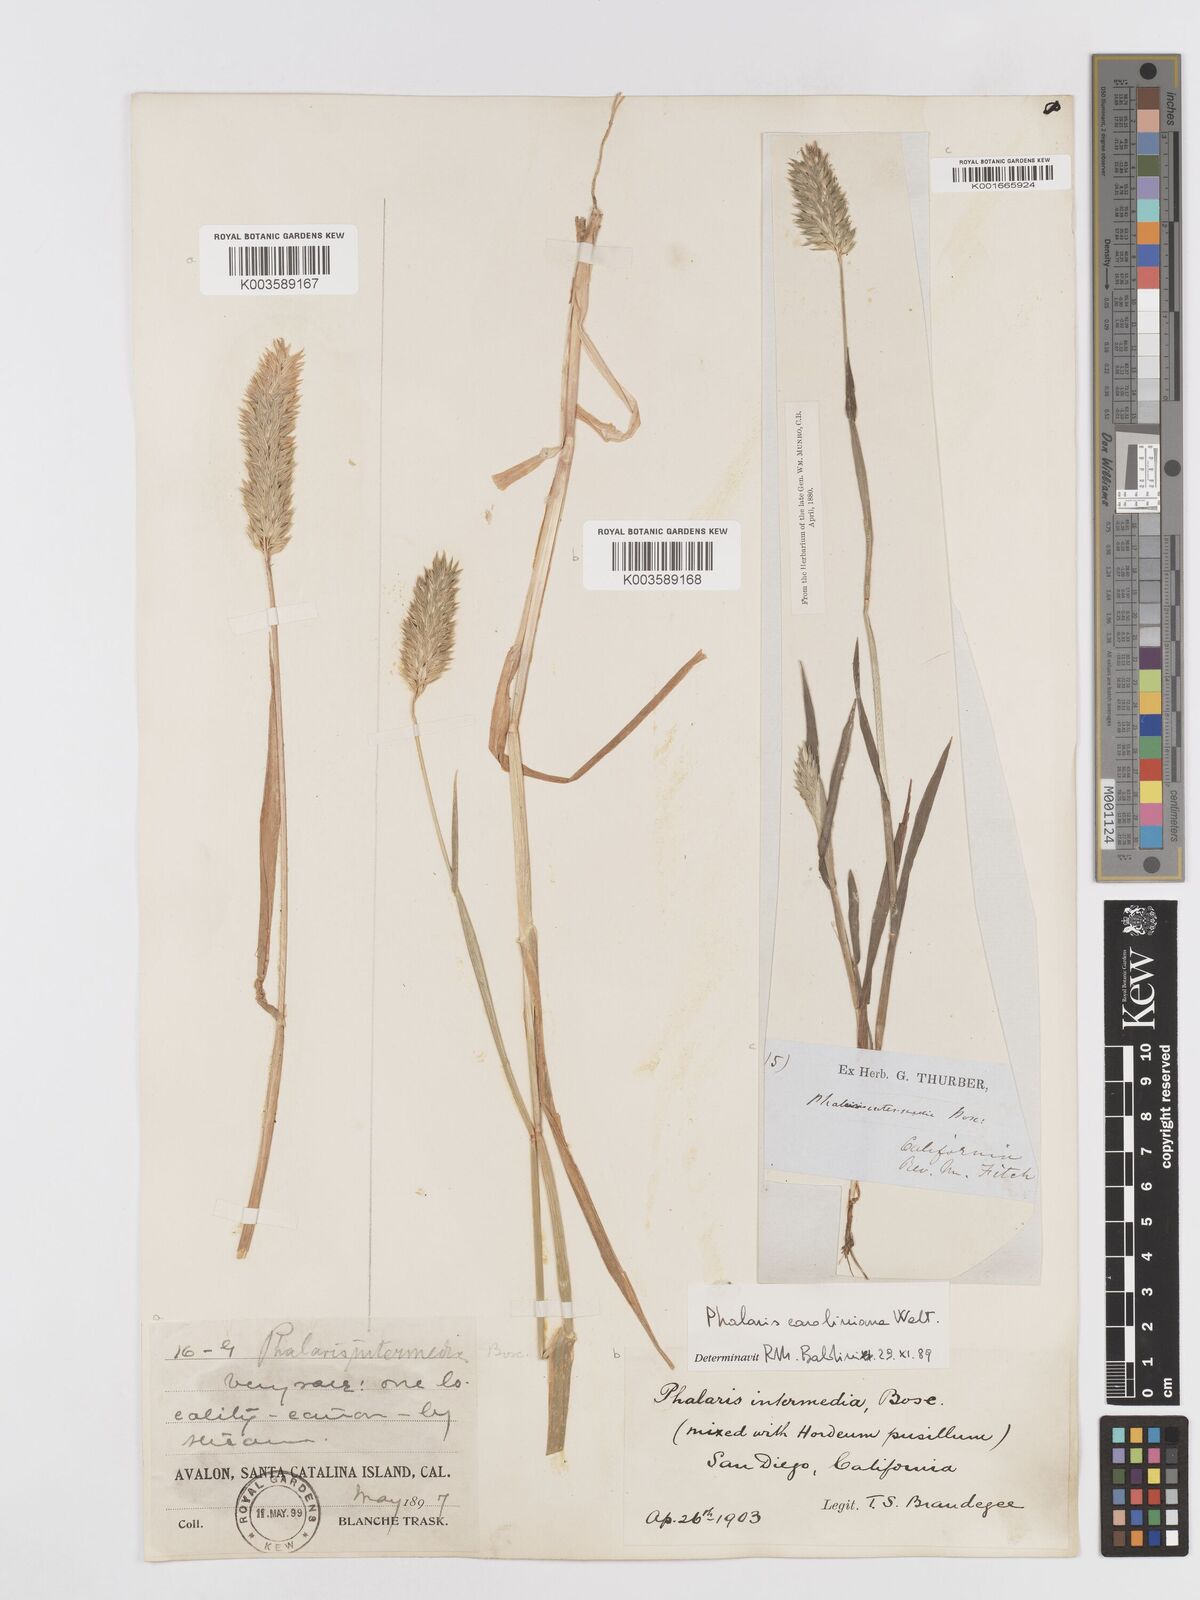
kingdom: Plantae
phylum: Tracheophyta
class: Liliopsida
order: Poales
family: Poaceae
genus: Phalaris
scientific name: Phalaris caroliniana
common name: May grass
